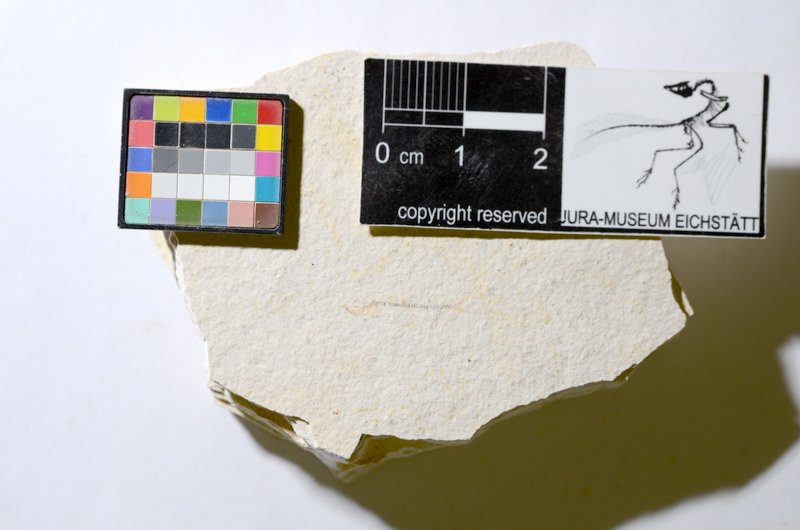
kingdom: Animalia
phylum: Chordata
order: Salmoniformes
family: Orthogonikleithridae
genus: Orthogonikleithrus
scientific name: Orthogonikleithrus hoelli
